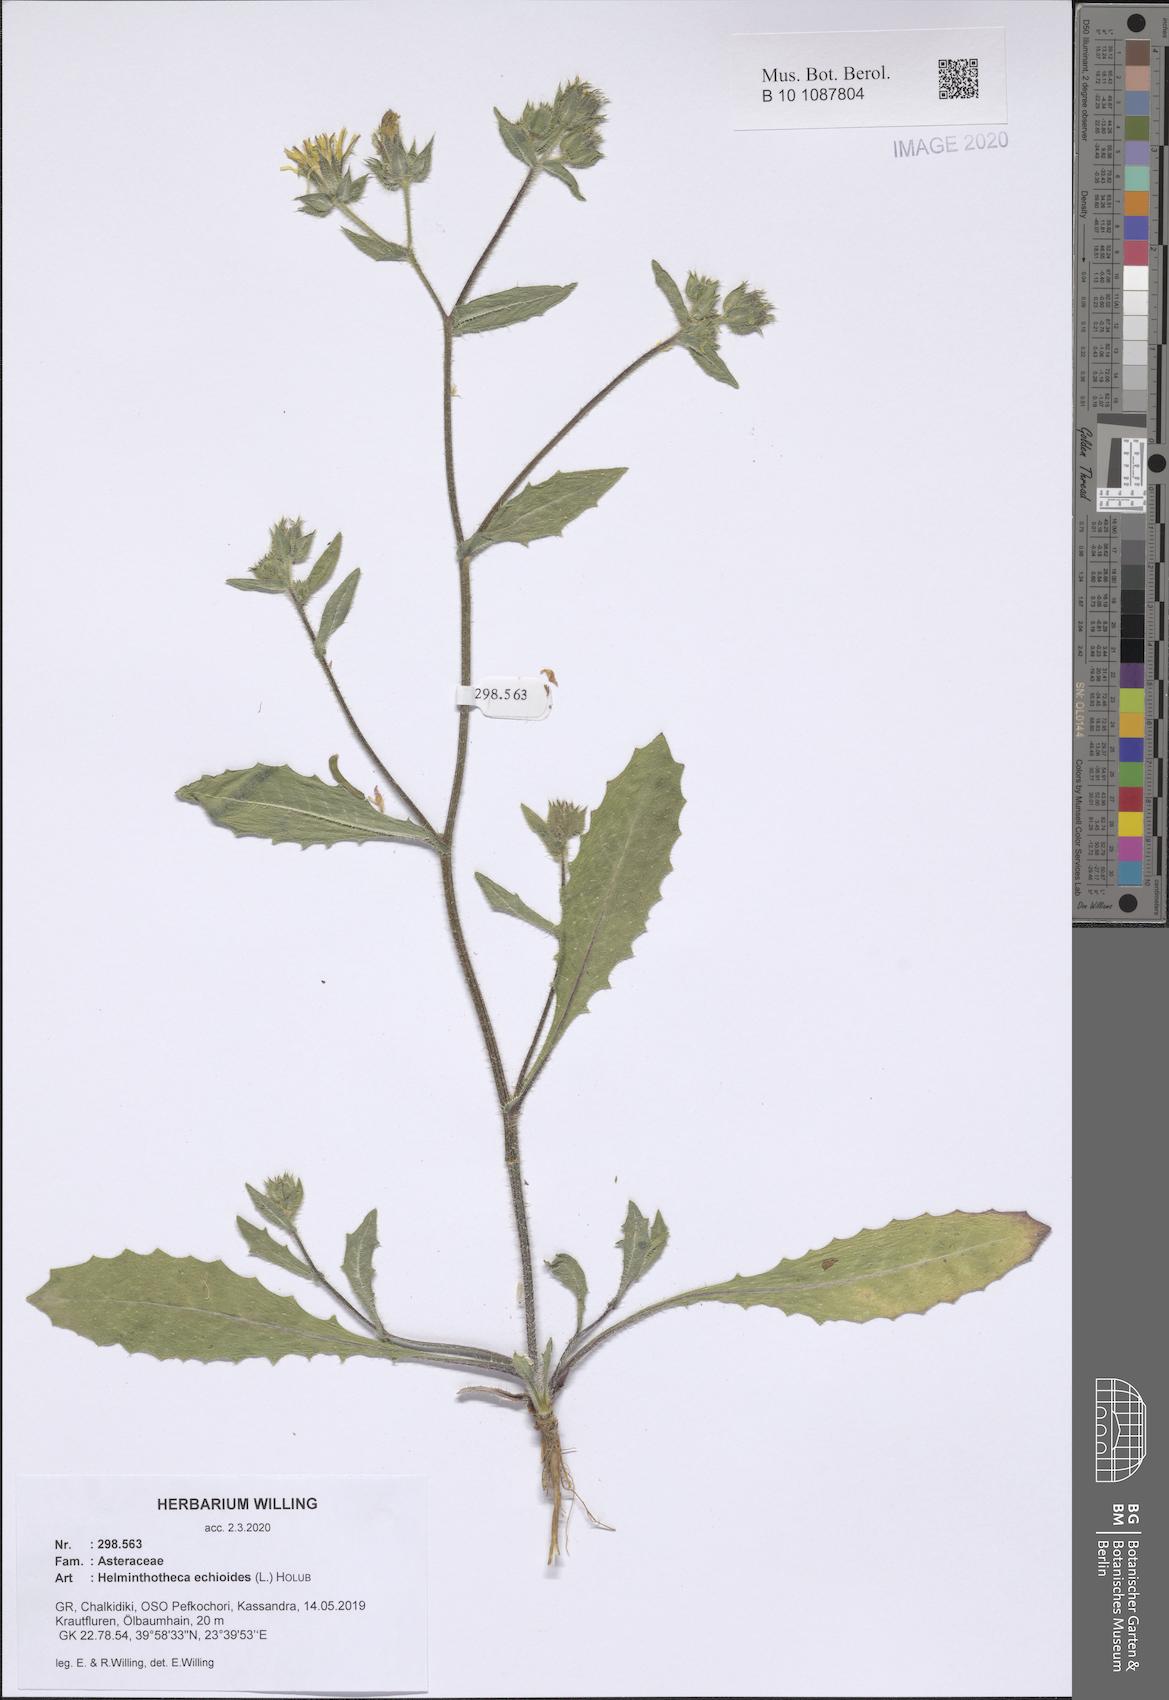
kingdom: Plantae
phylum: Tracheophyta
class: Magnoliopsida
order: Asterales
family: Asteraceae
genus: Helminthotheca
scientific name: Helminthotheca echioides
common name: Ox-tongue
